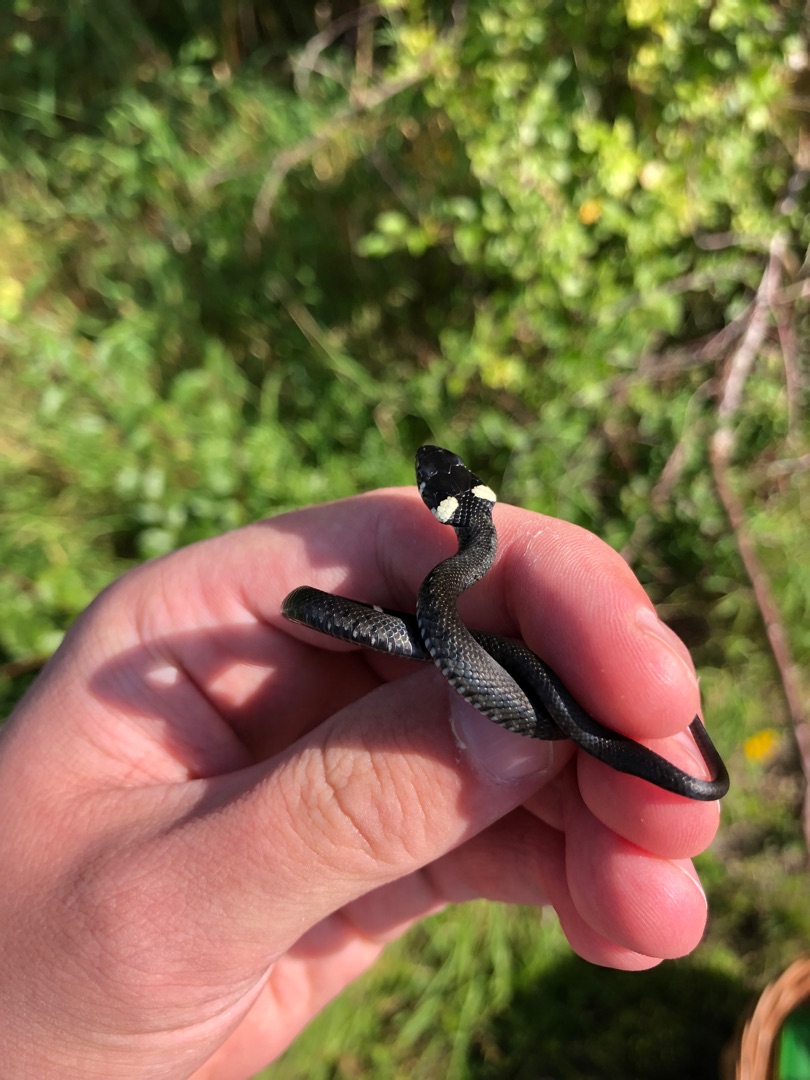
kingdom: Animalia
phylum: Chordata
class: Squamata
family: Colubridae
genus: Natrix
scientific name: Natrix natrix
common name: Snog
